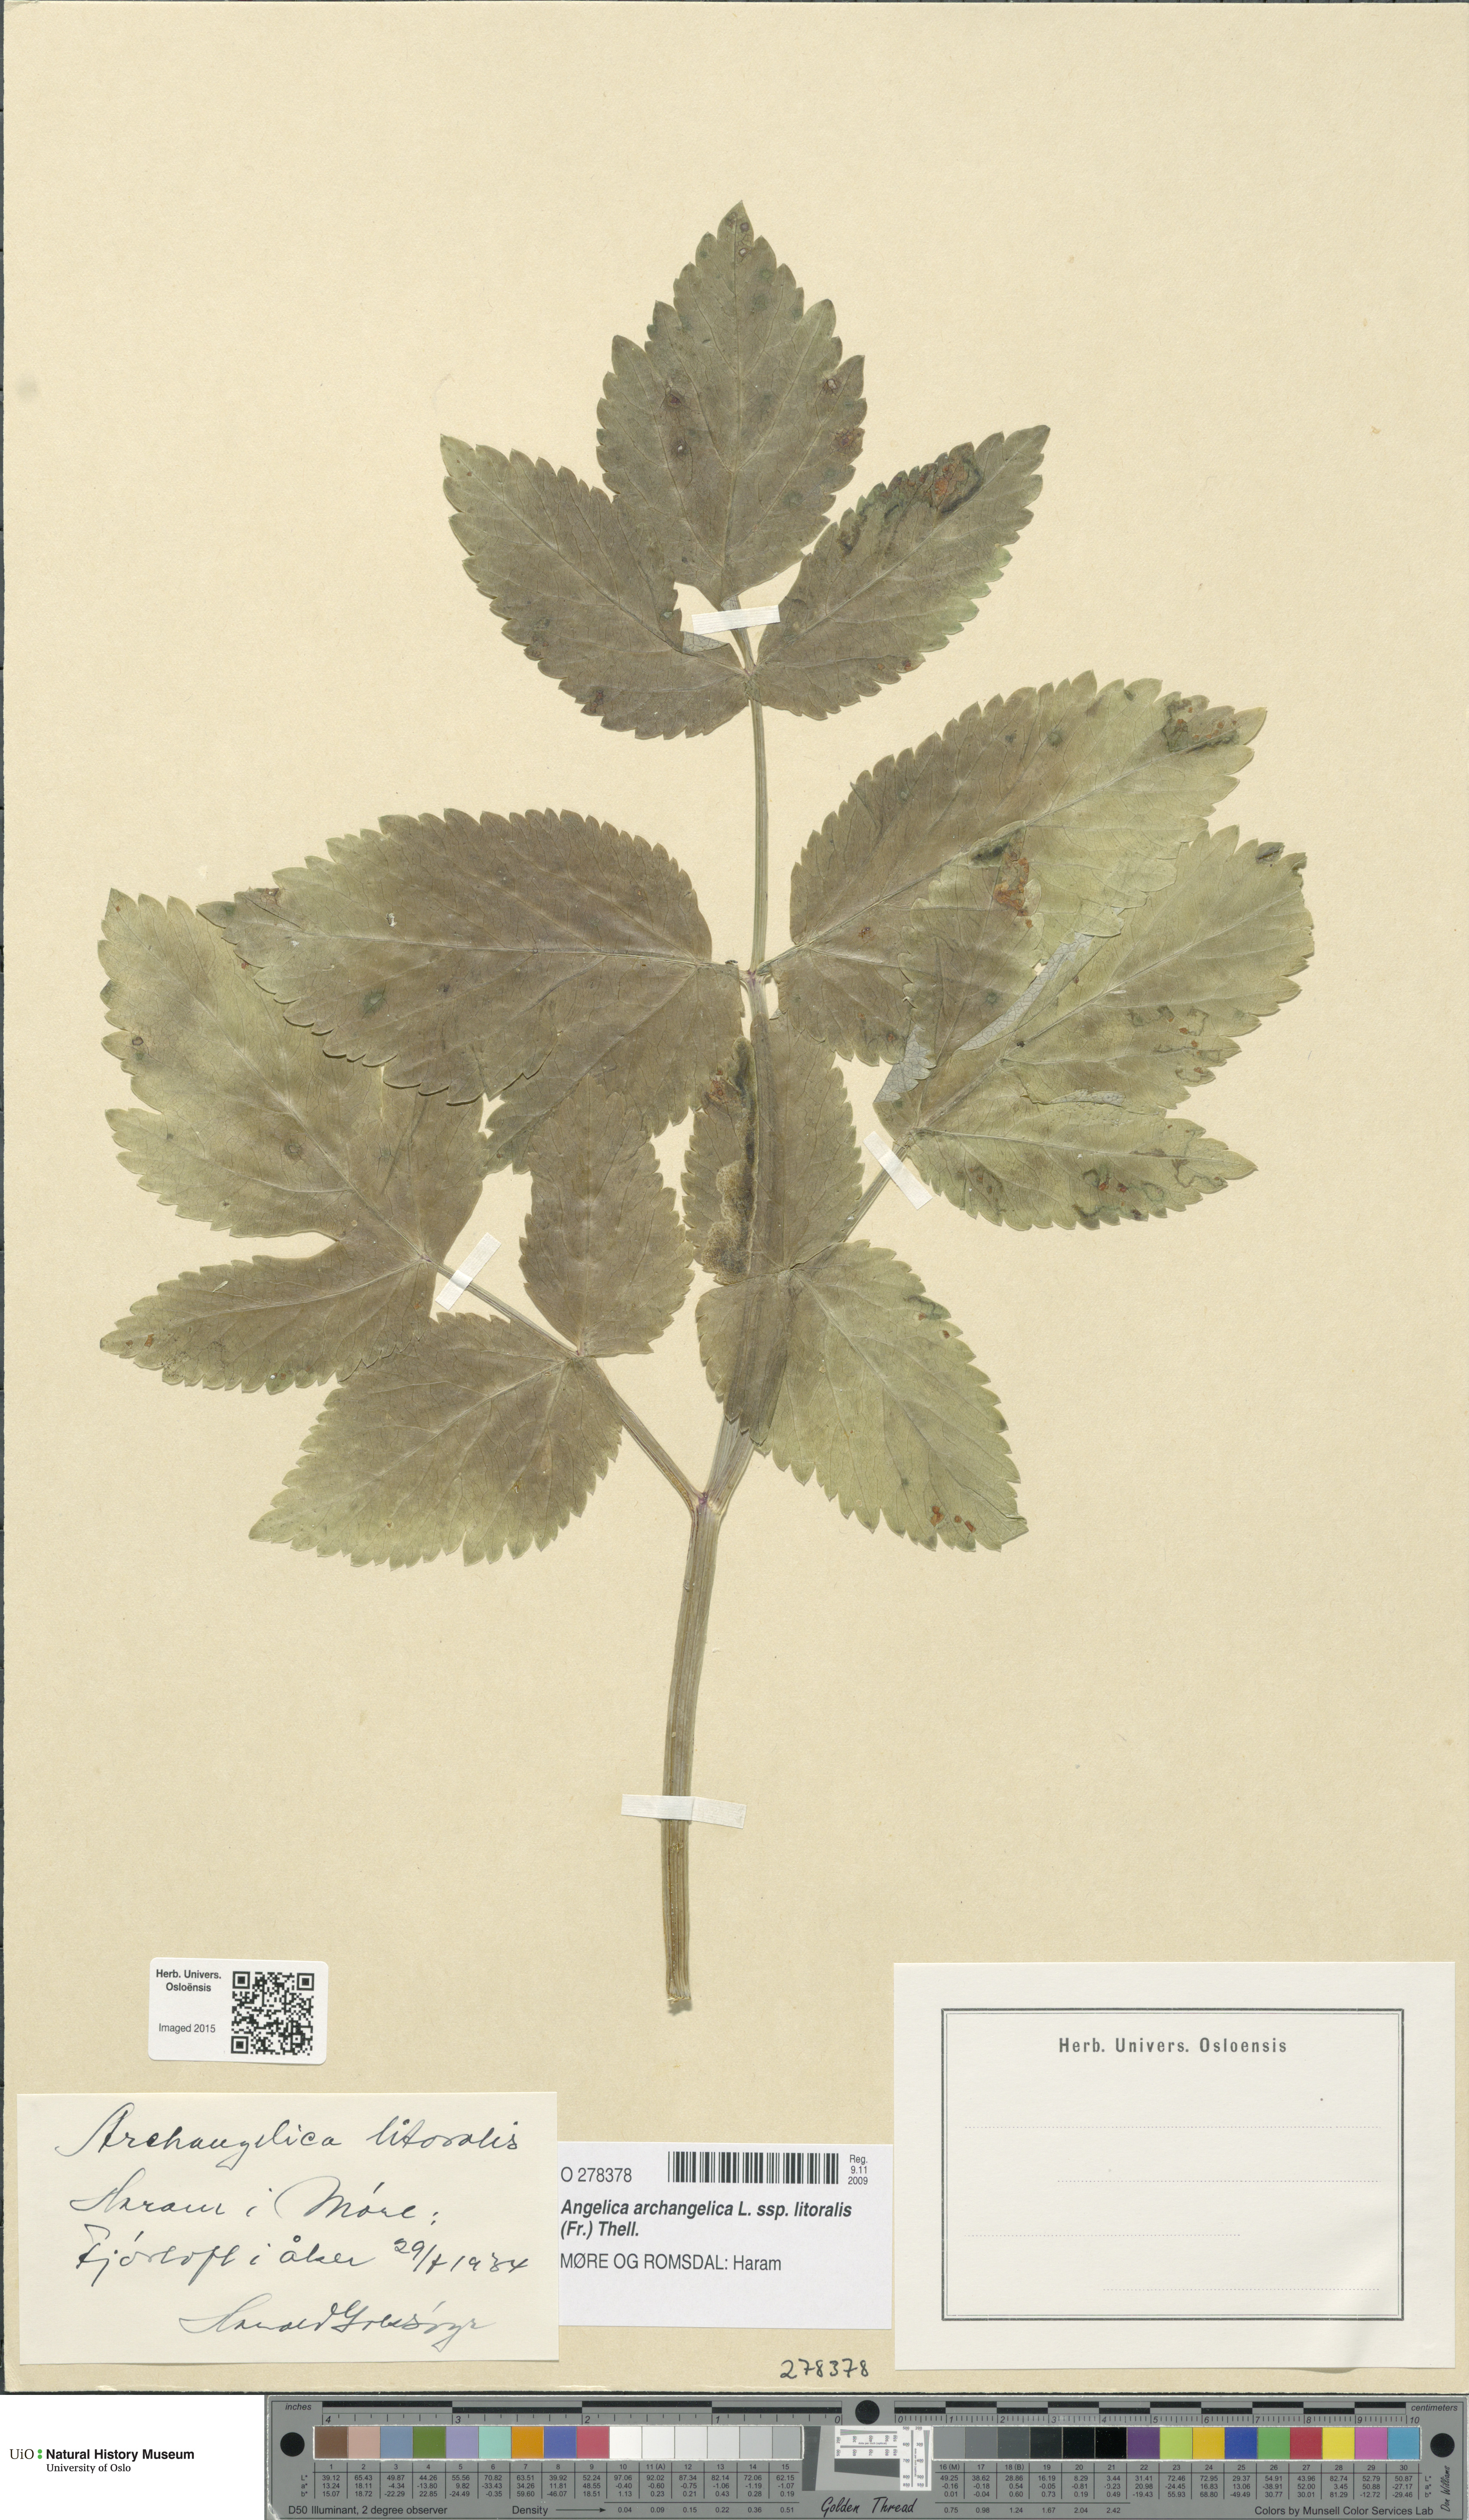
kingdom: Plantae
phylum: Tracheophyta
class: Magnoliopsida
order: Apiales
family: Apiaceae
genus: Angelica
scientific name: Angelica archangelica
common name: Garden angelica
